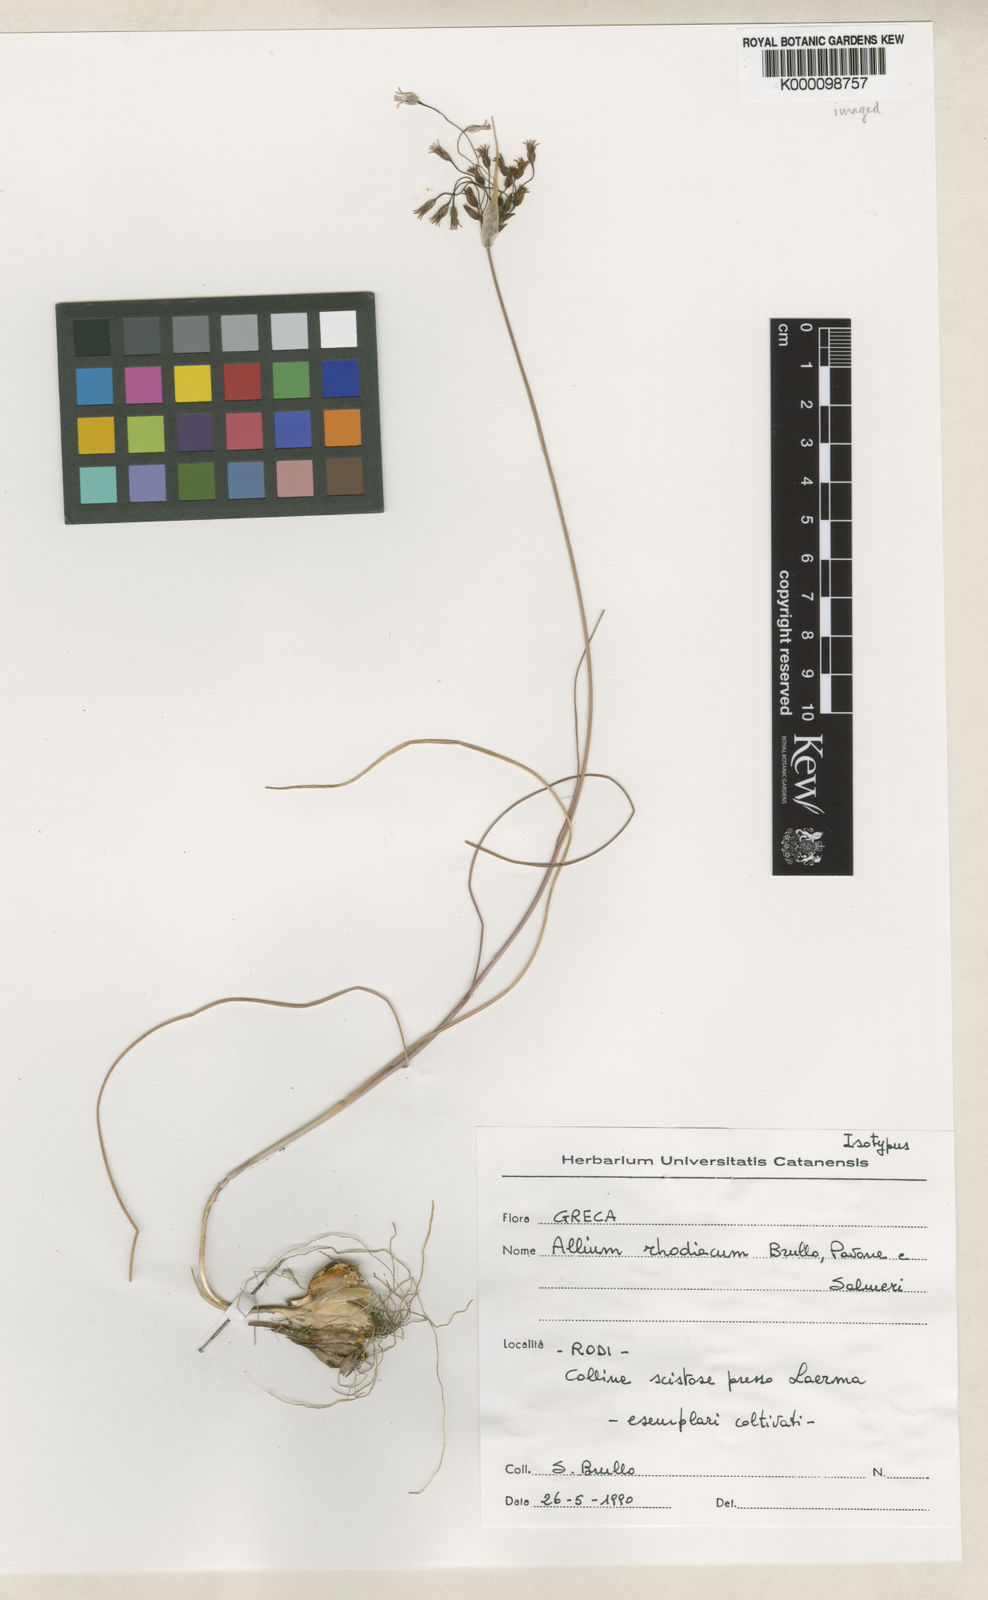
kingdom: Plantae
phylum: Tracheophyta
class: Liliopsida
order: Asparagales
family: Amaryllidaceae
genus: Allium
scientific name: Allium rhodiacum
